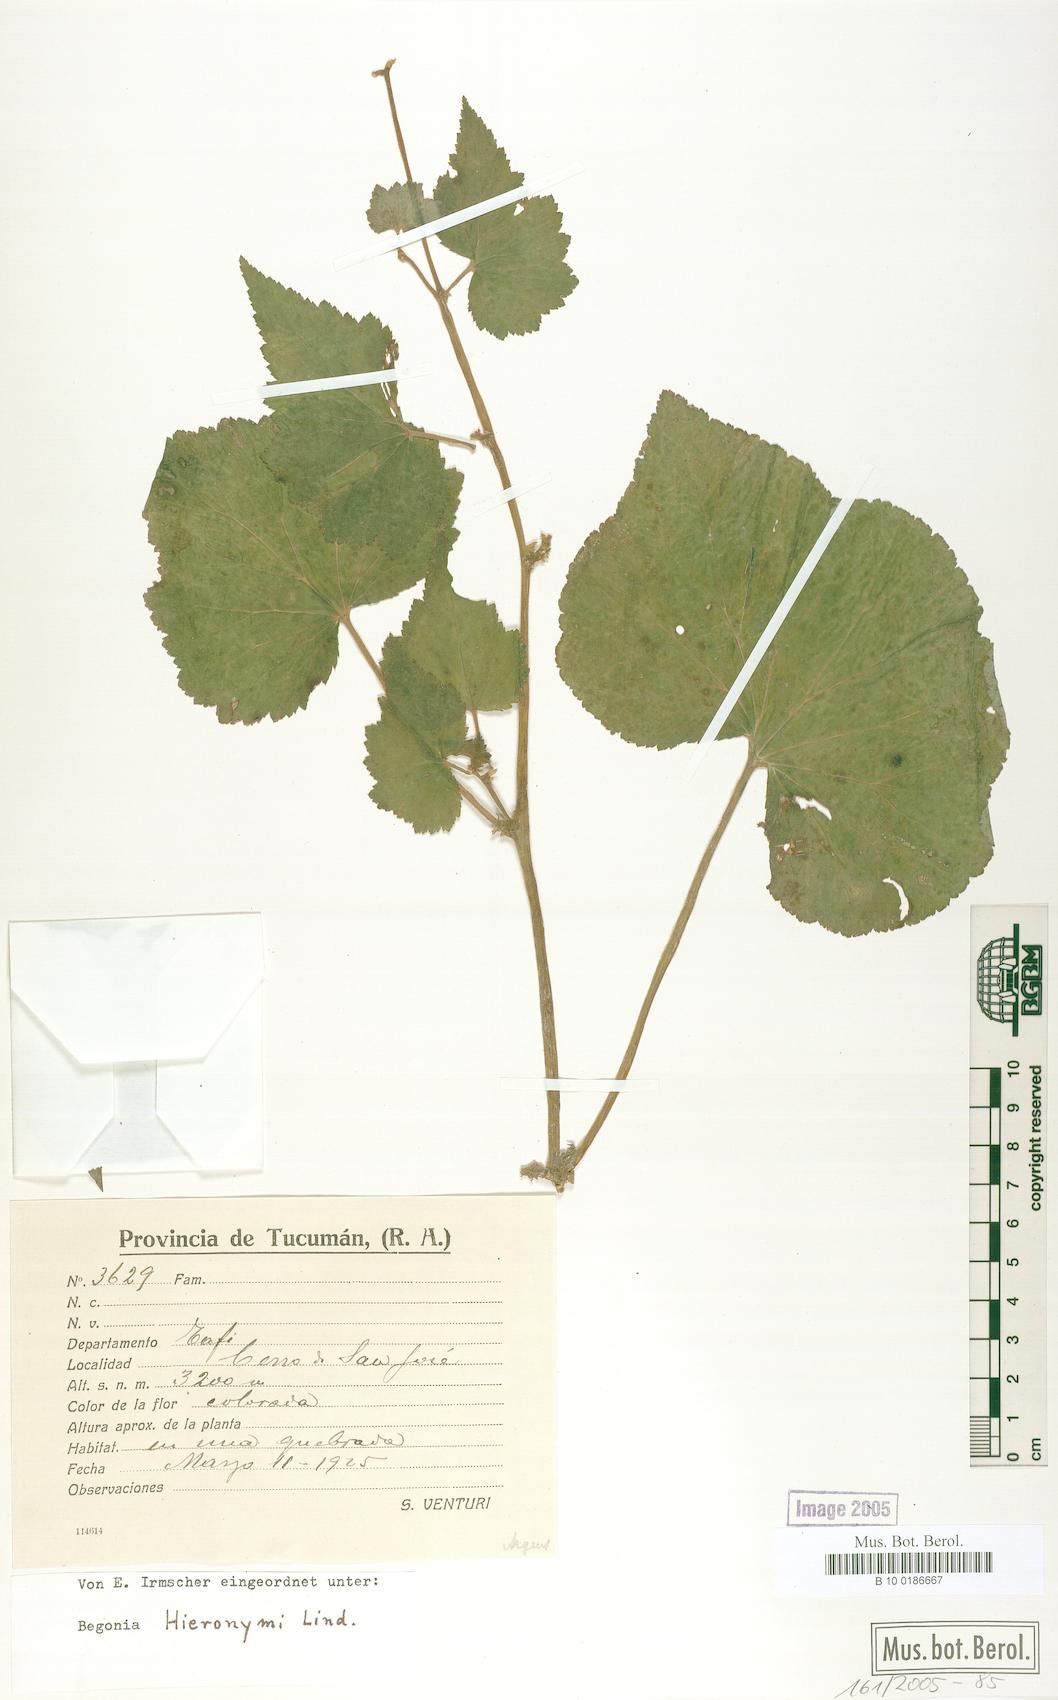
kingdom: Plantae
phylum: Tracheophyta
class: Magnoliopsida
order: Cucurbitales
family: Begoniaceae
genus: Begonia
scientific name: Begonia micranthera
